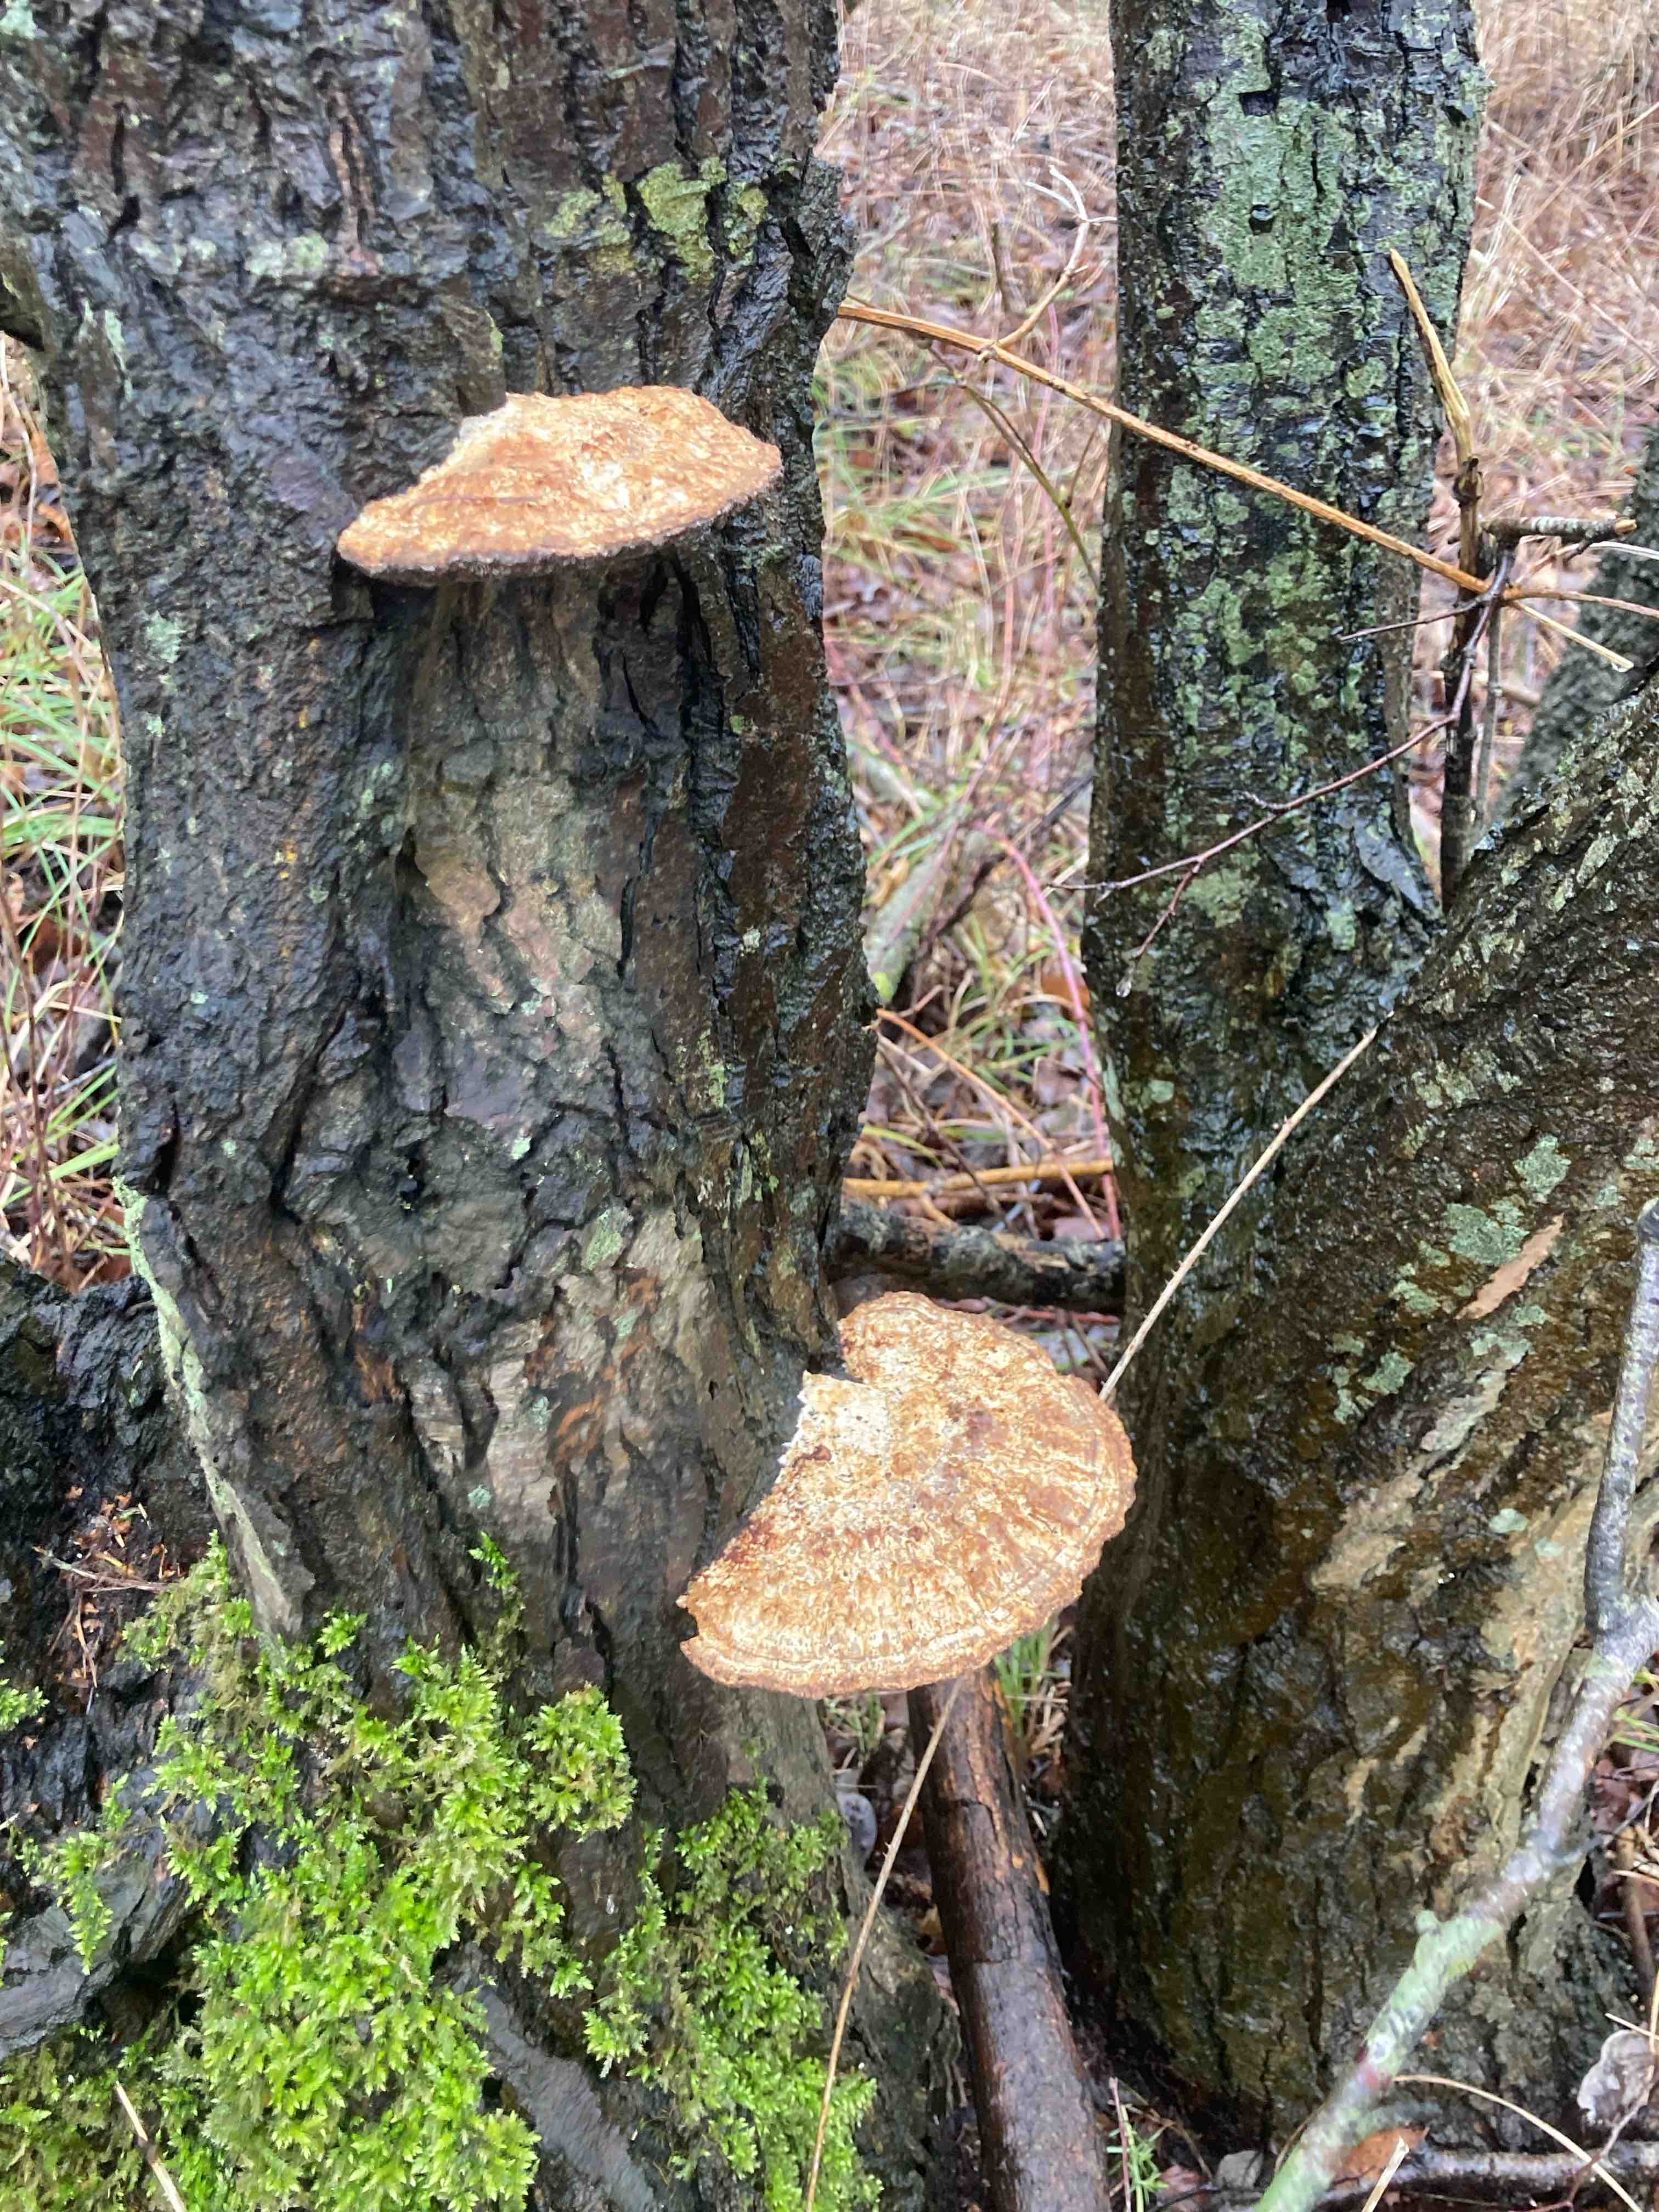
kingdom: Fungi
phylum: Basidiomycota
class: Agaricomycetes
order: Polyporales
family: Polyporaceae
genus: Daedaleopsis
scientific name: Daedaleopsis confragosa
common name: rødmende læderporesvamp
